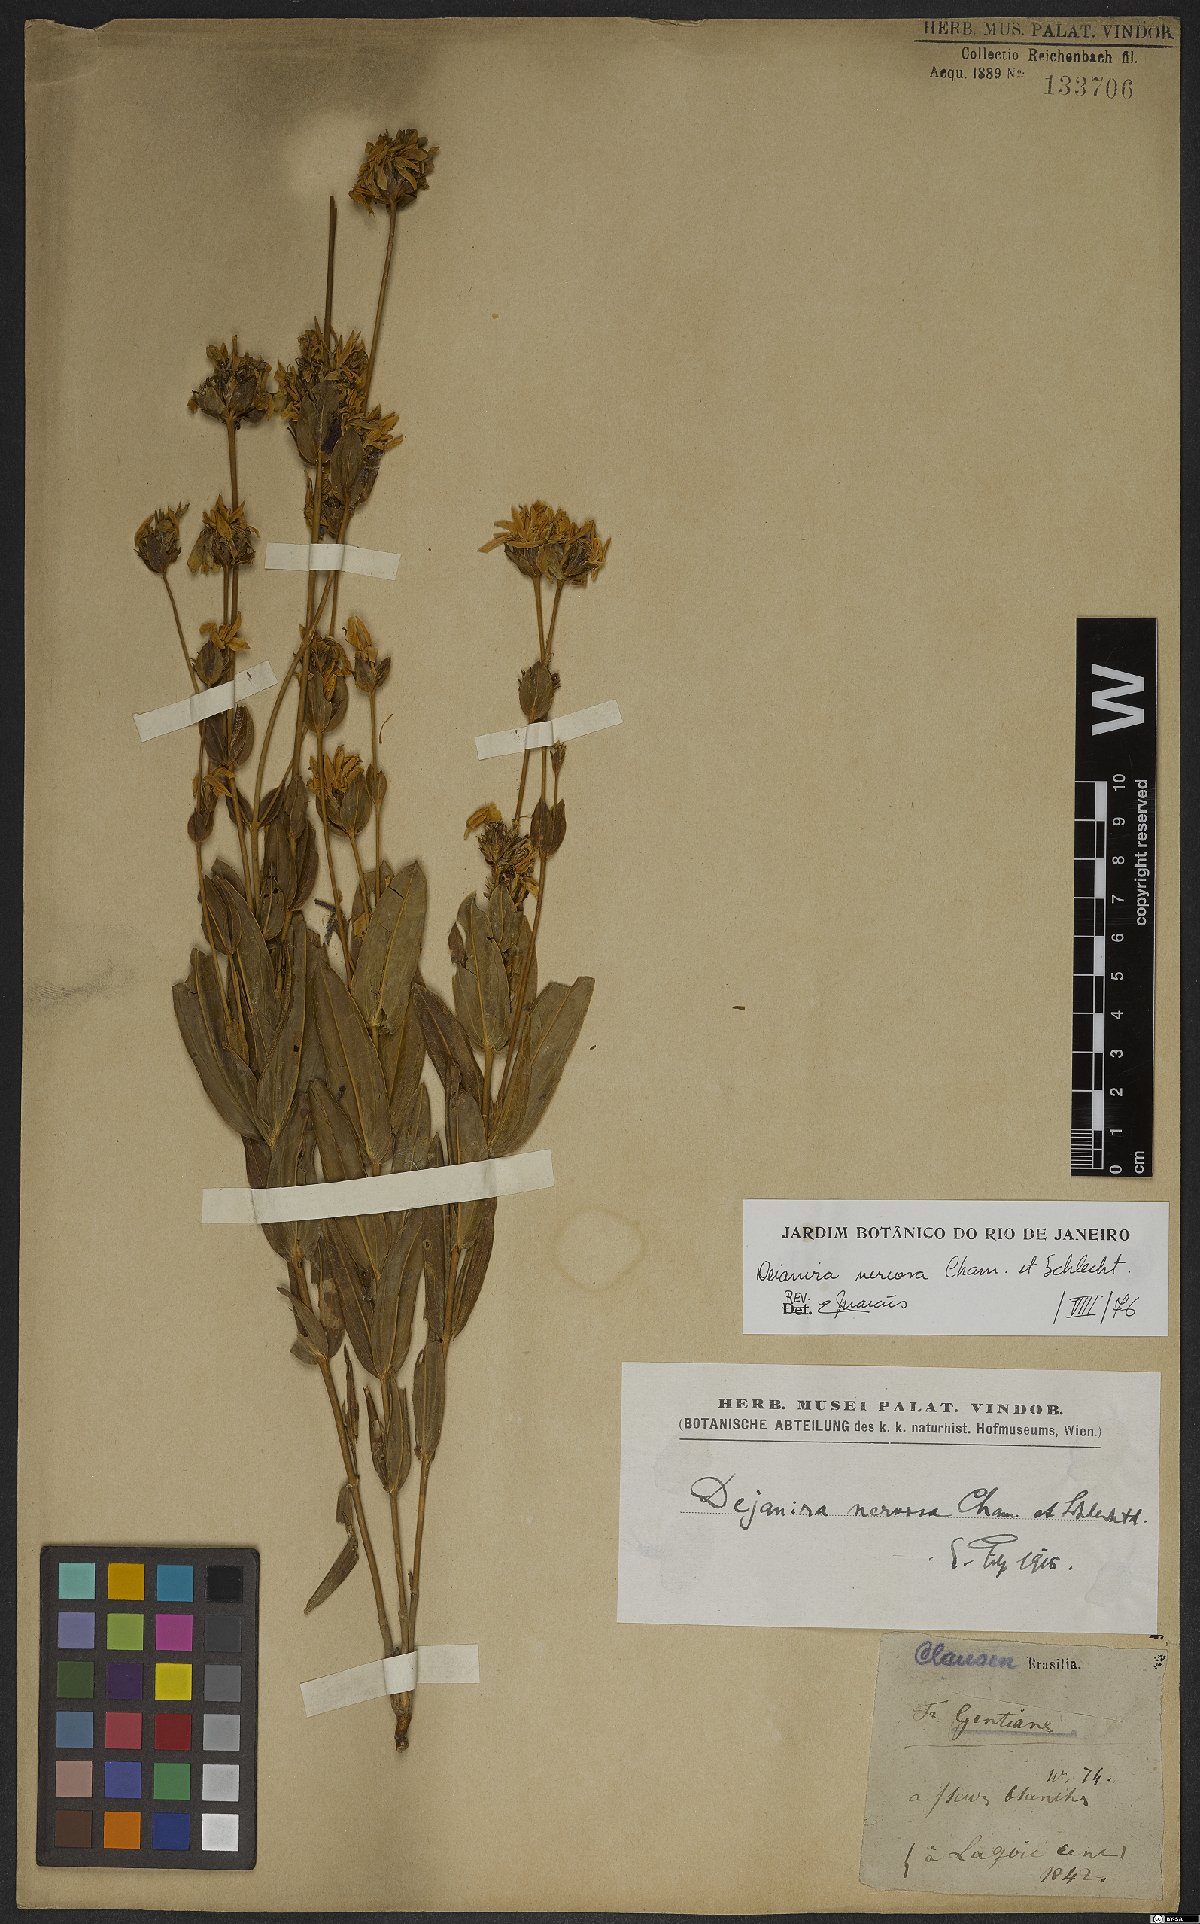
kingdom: Plantae
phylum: Tracheophyta
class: Magnoliopsida
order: Gentianales
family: Gentianaceae
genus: Deianira
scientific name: Deianira nervosa
